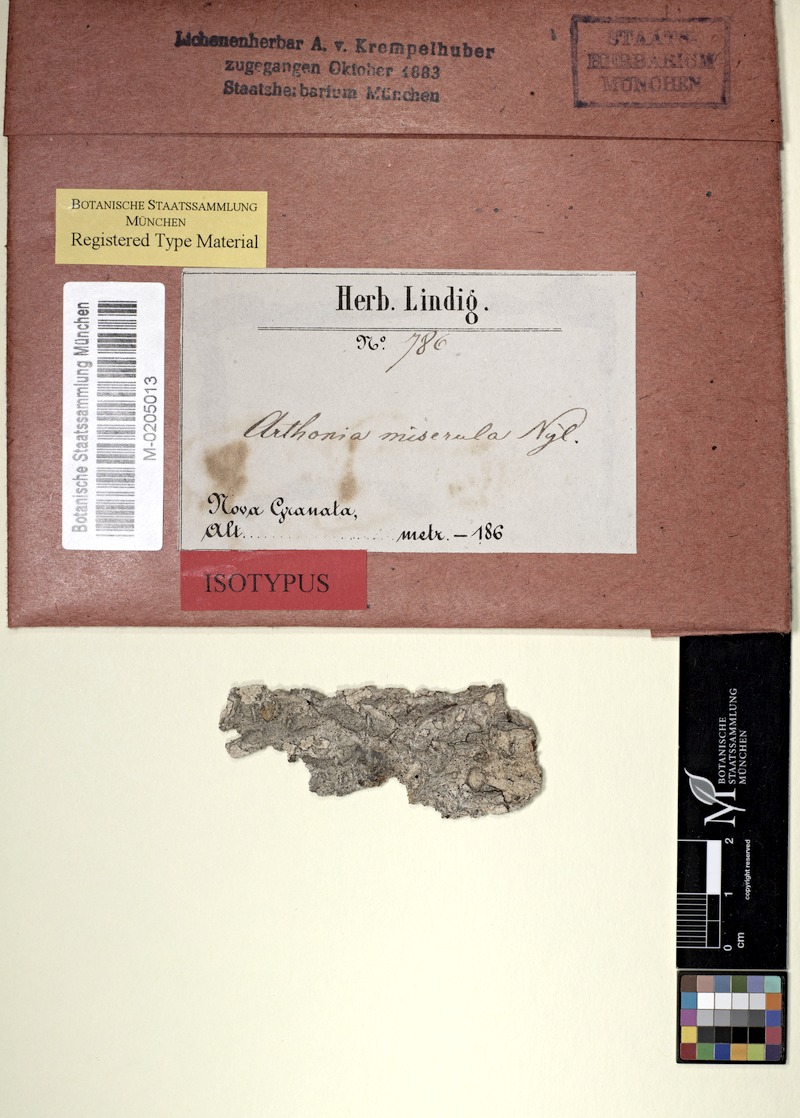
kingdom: Fungi
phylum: Ascomycota
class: Arthoniomycetes
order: Arthoniales
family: Arthoniaceae
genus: Arthonia
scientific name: Arthonia miserula
